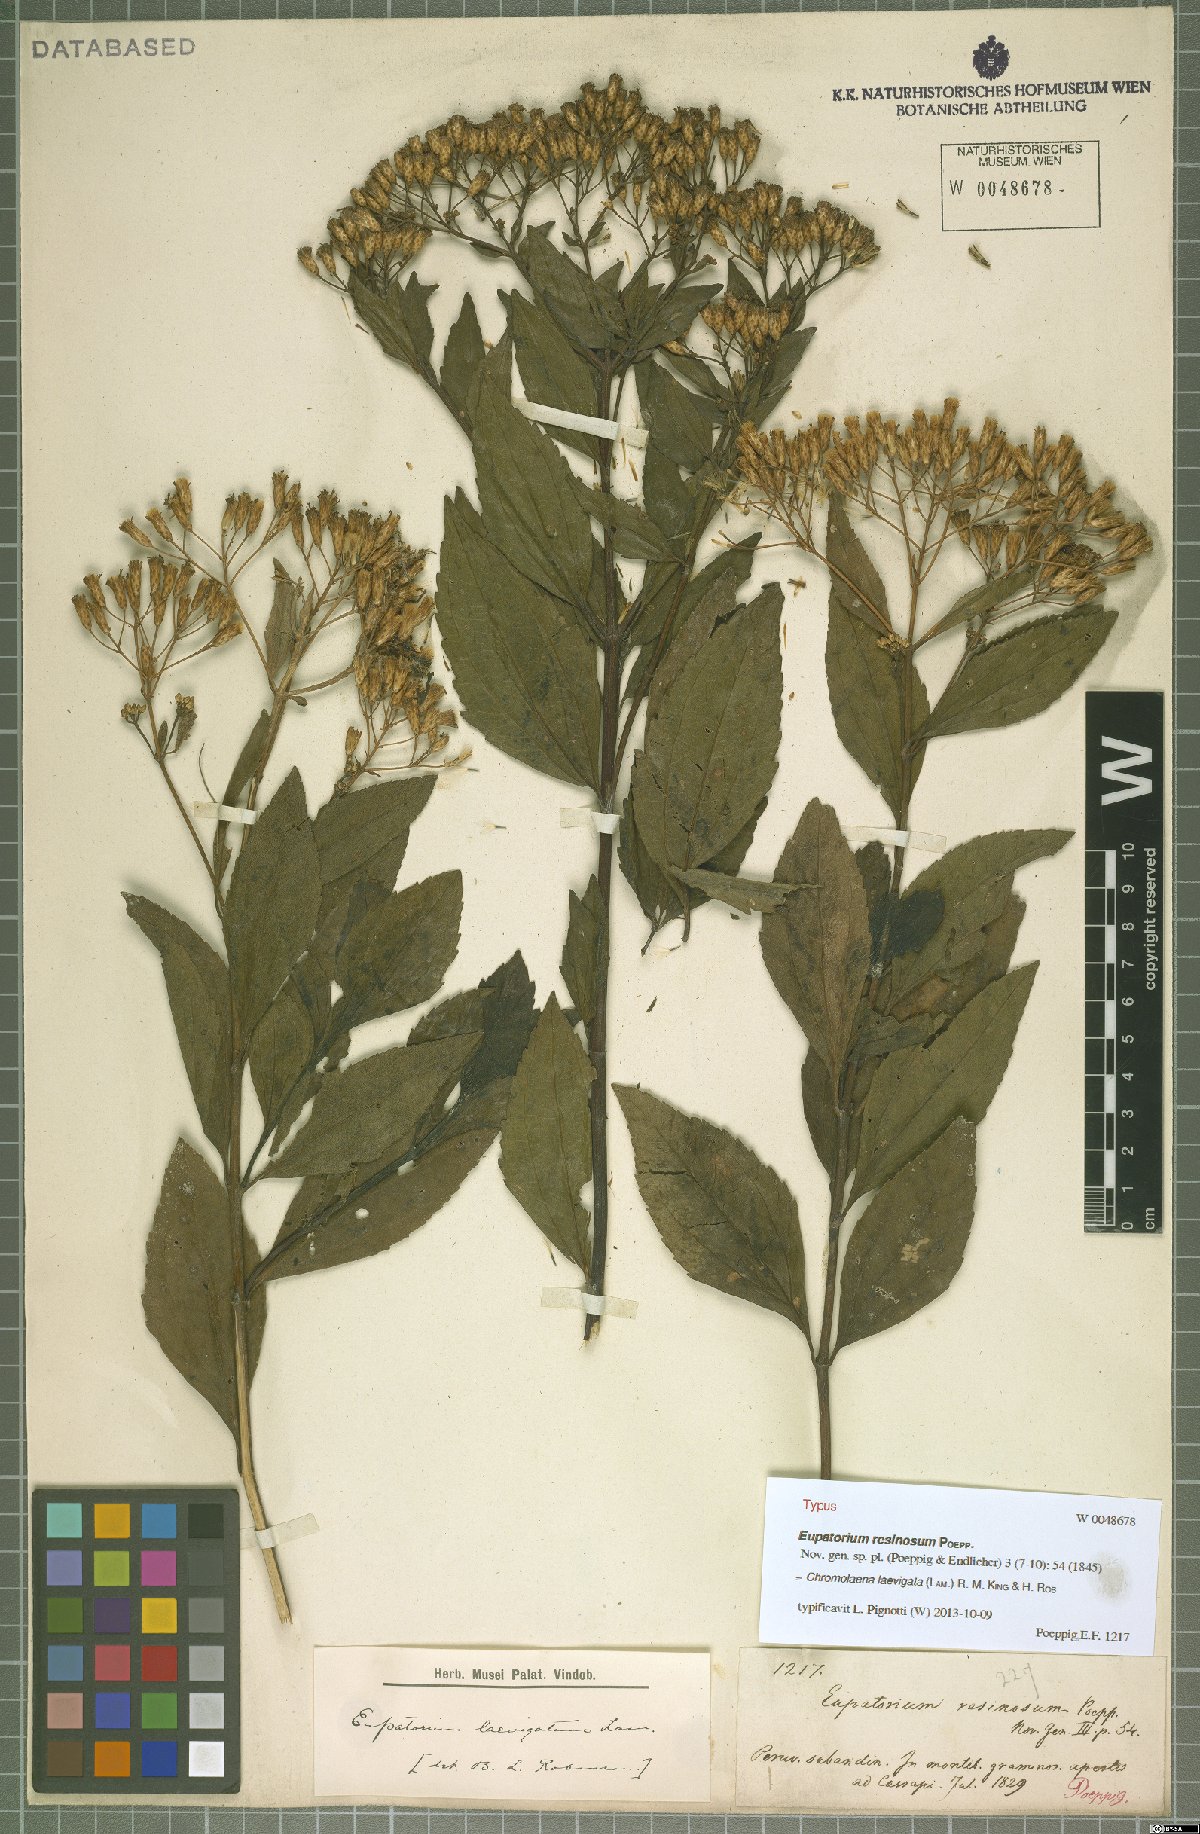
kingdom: Plantae
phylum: Tracheophyta
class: Magnoliopsida
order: Asterales
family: Asteraceae
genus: Chromolaena
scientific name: Chromolaena laevigata
